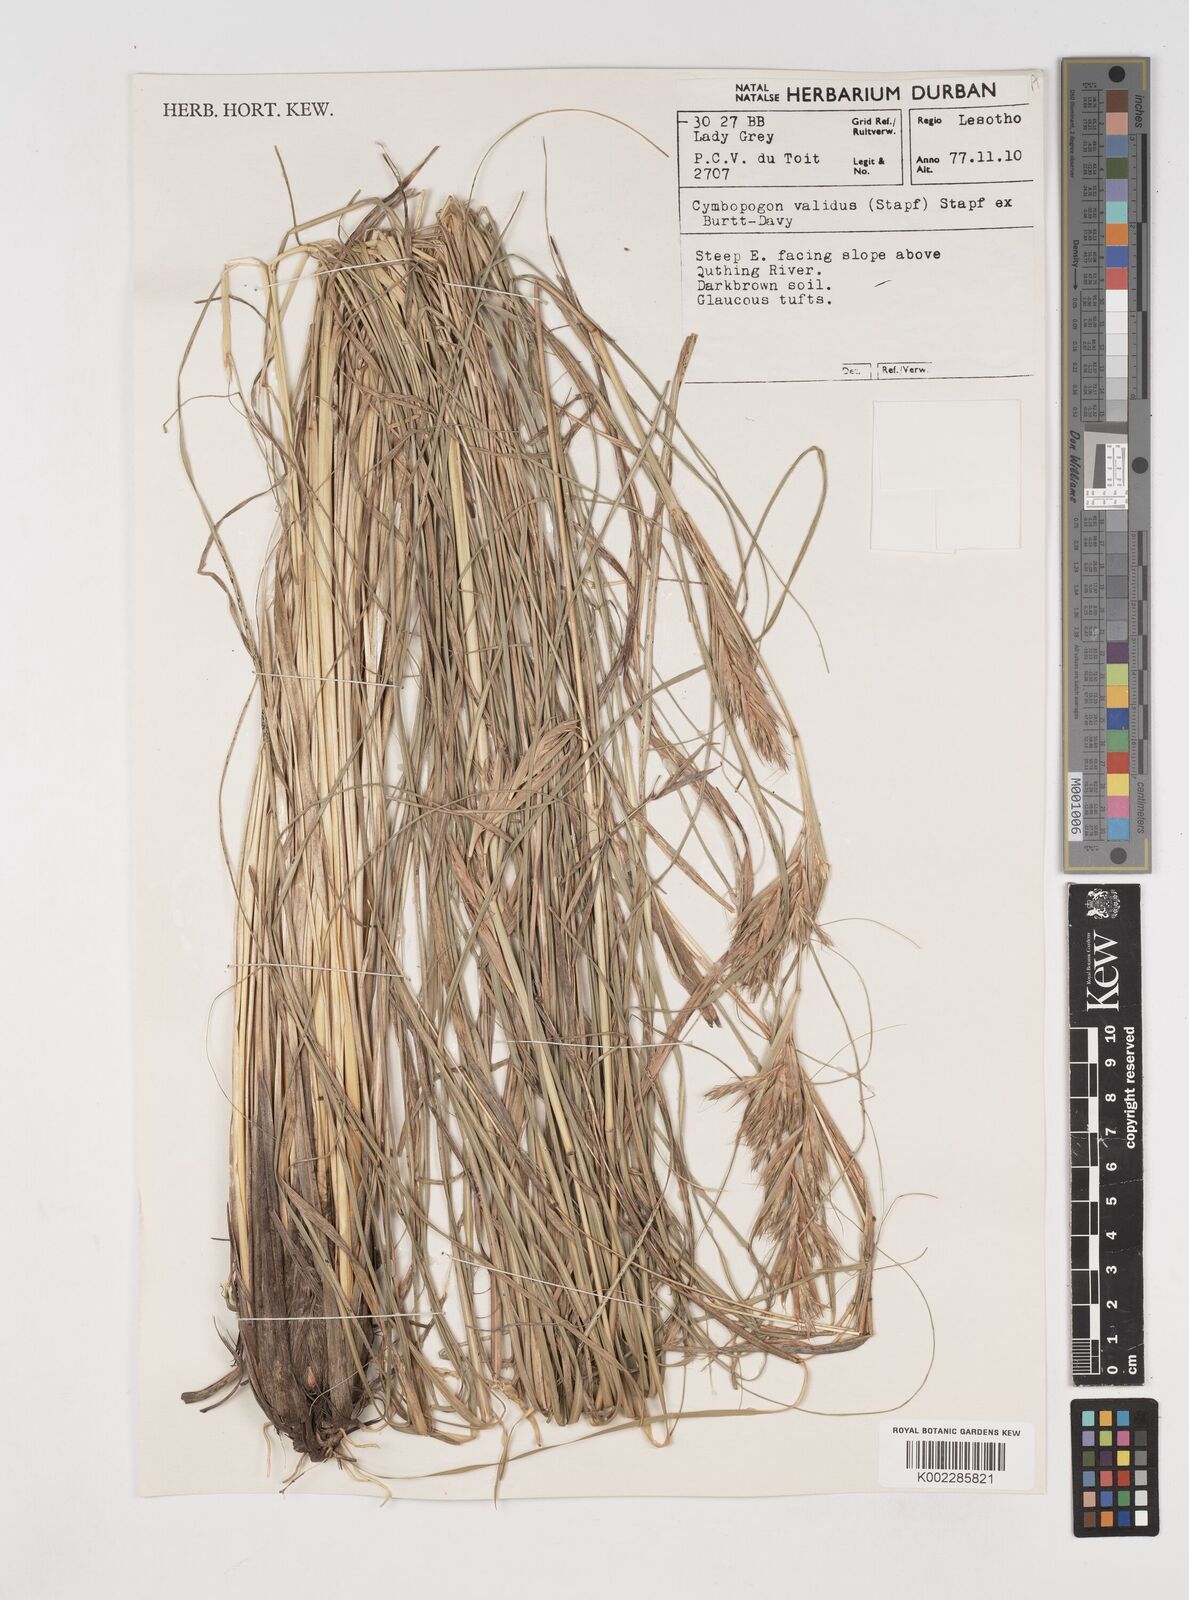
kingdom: Plantae
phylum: Tracheophyta
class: Liliopsida
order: Poales
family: Poaceae
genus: Cymbopogon
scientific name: Cymbopogon nardus
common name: Giant turpentine grass
